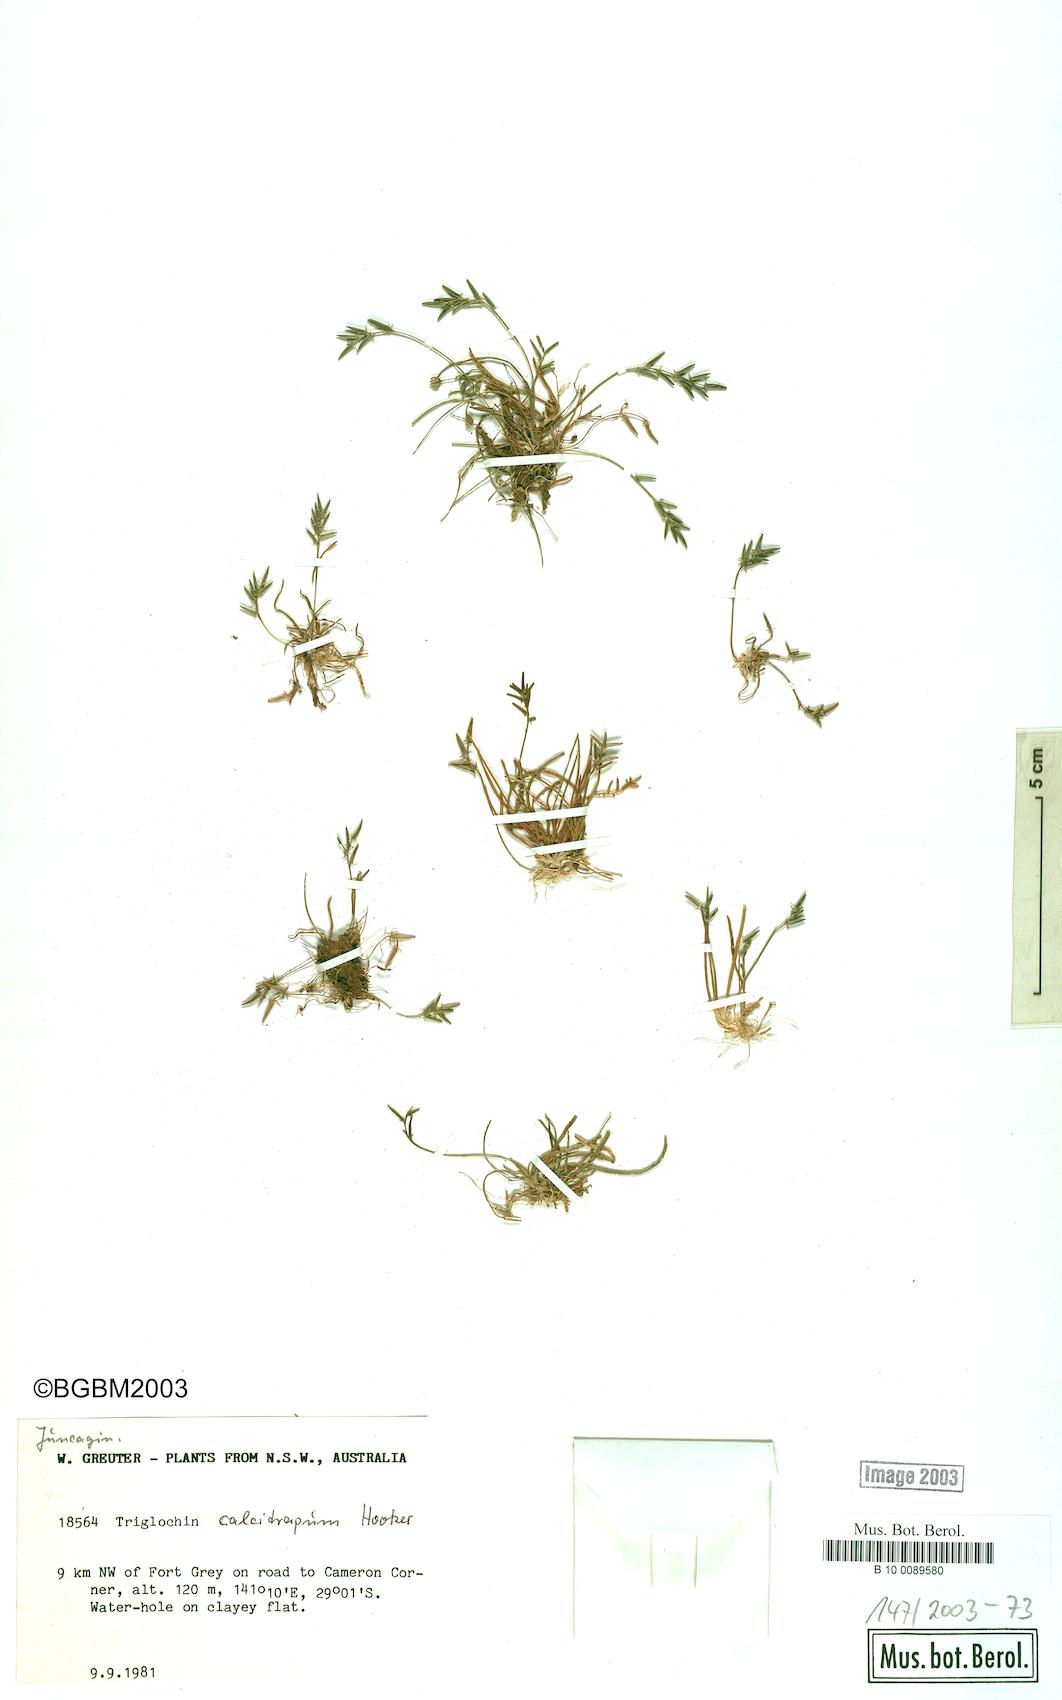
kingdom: Plantae
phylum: Tracheophyta
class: Liliopsida
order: Alismatales
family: Juncaginaceae
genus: Triglochin
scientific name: Triglochin calcitrapa
